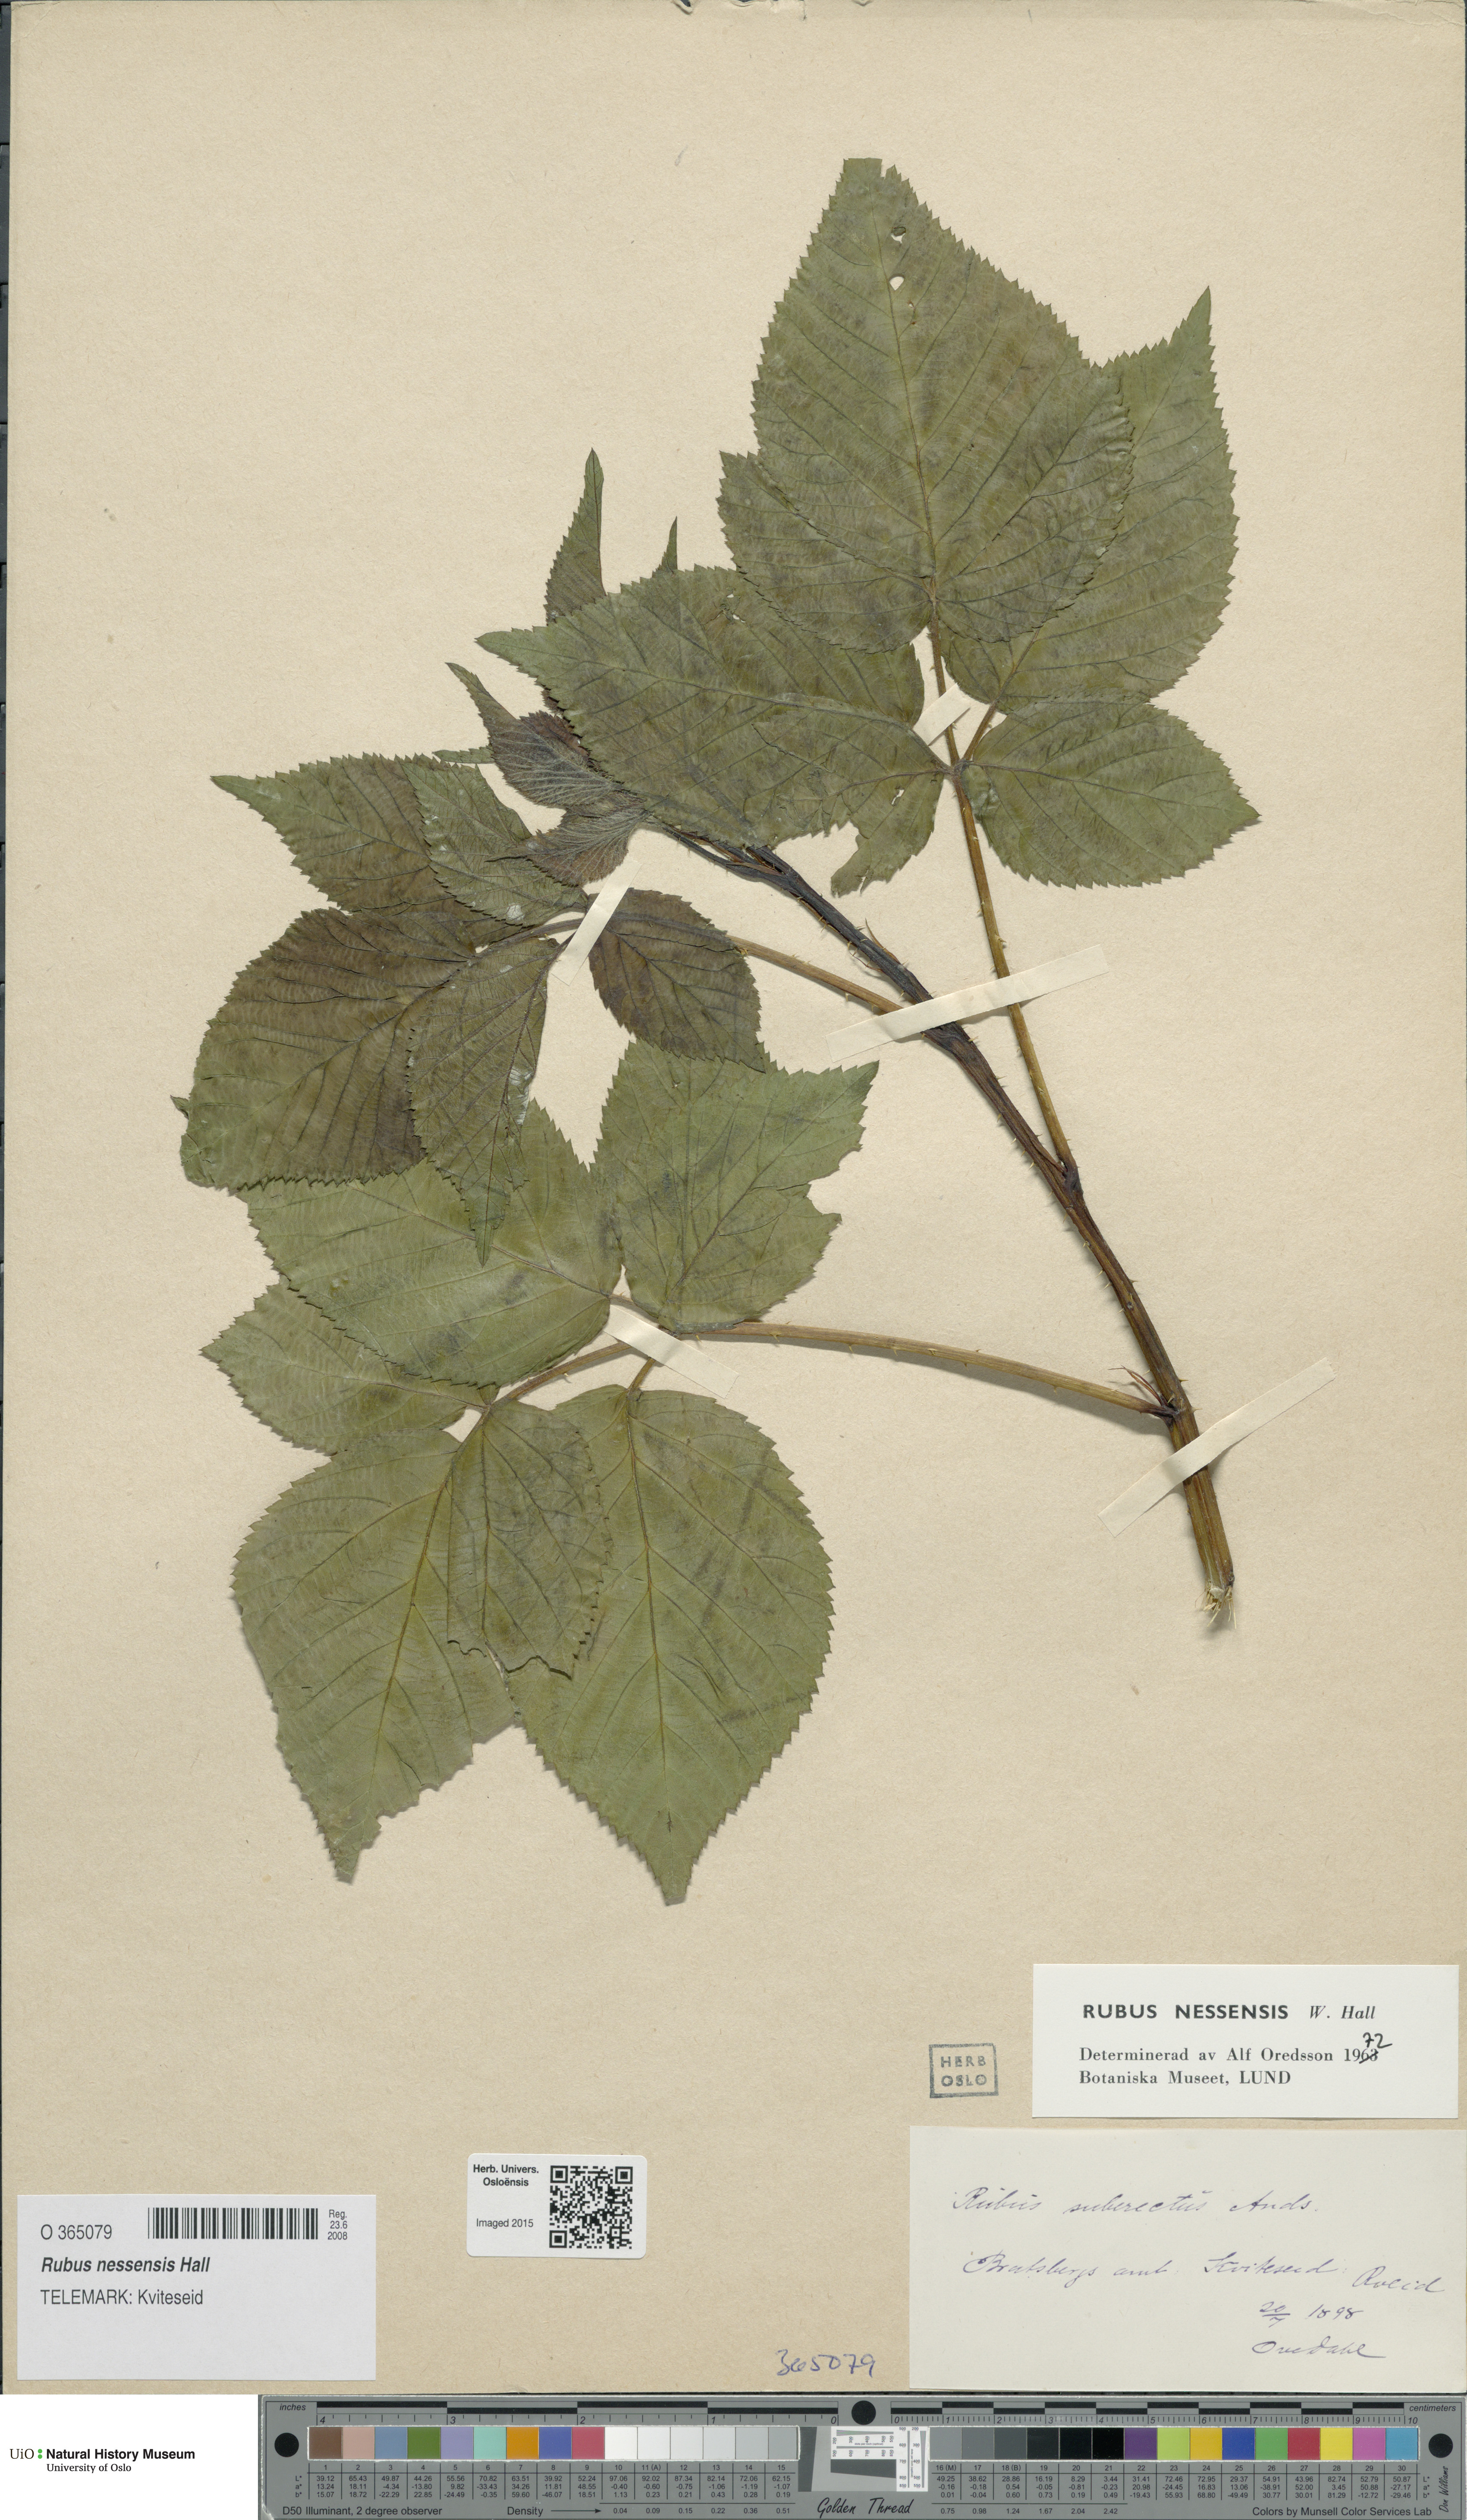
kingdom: Plantae
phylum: Tracheophyta
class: Magnoliopsida
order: Rosales
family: Rosaceae
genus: Rubus
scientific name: Rubus polonicus
